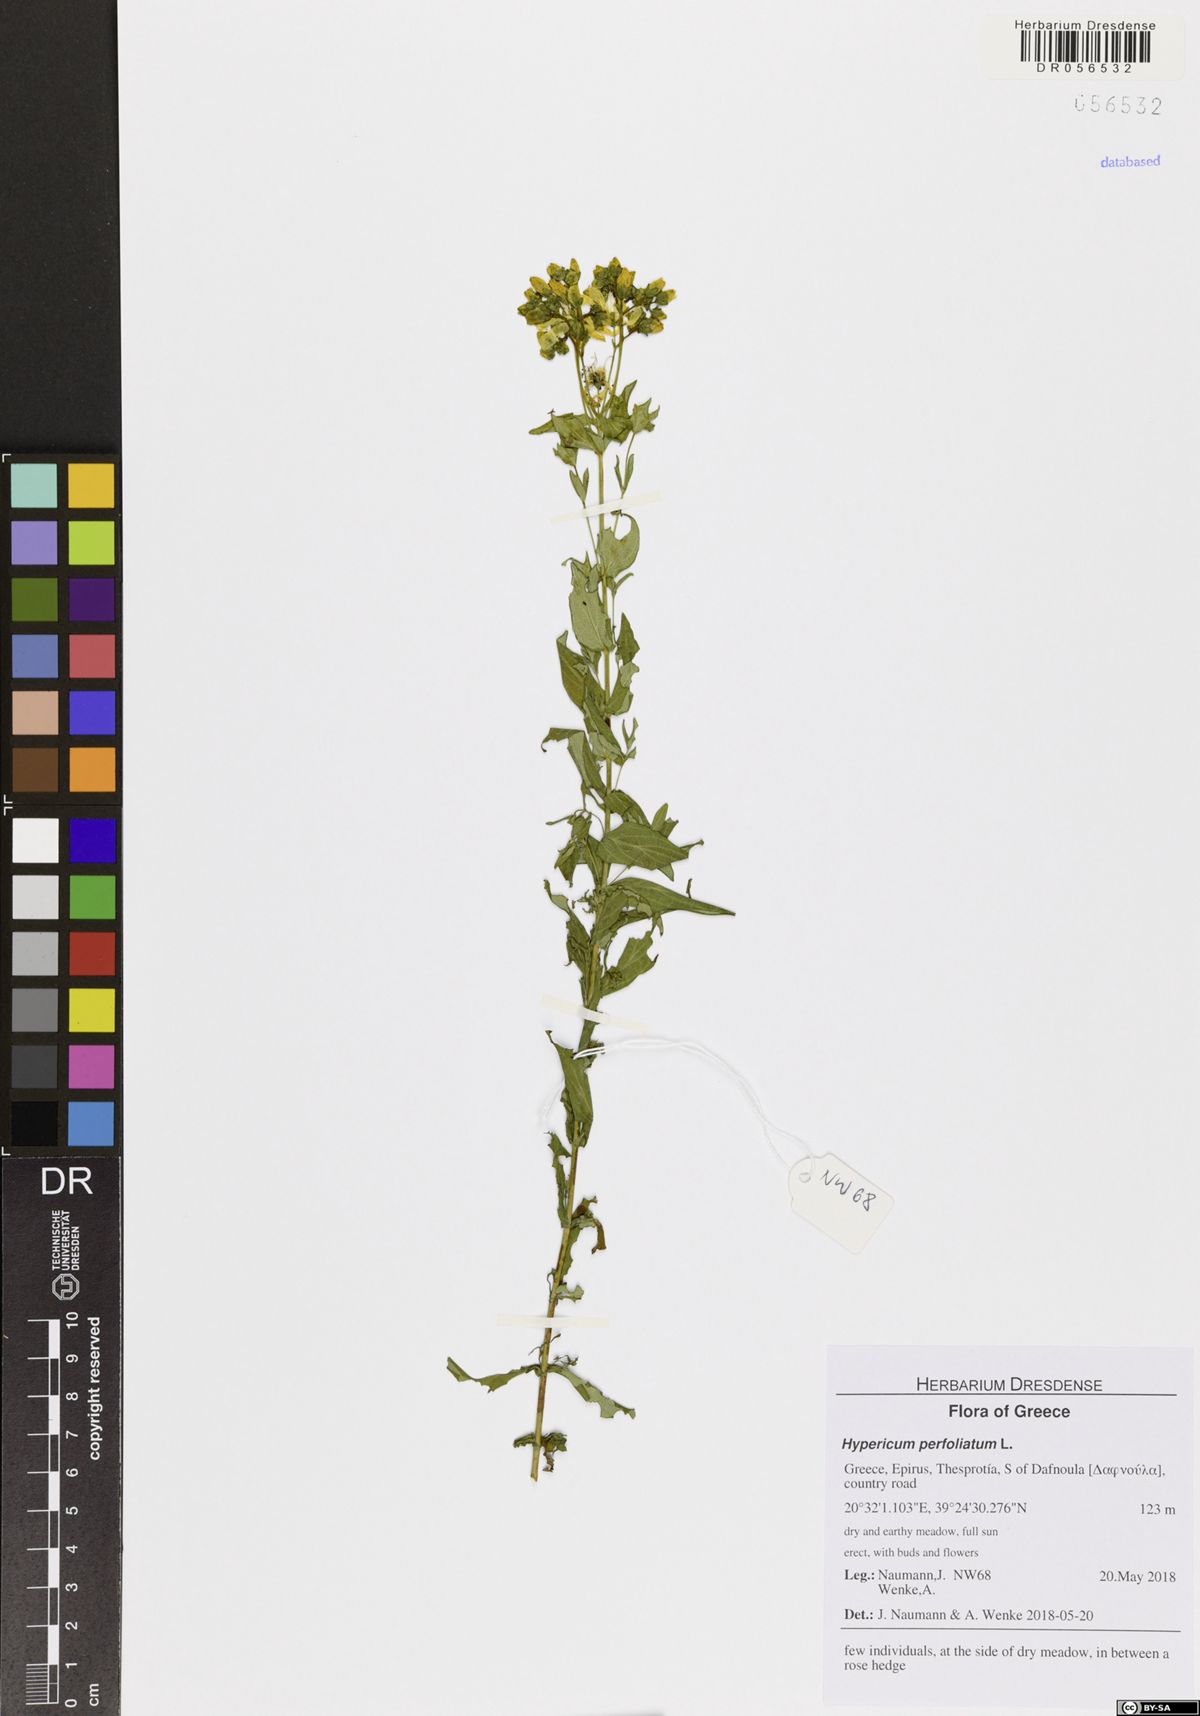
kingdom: Plantae
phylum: Tracheophyta
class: Magnoliopsida
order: Malpighiales
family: Hypericaceae
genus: Hypericum
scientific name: Hypericum perfoliatum
